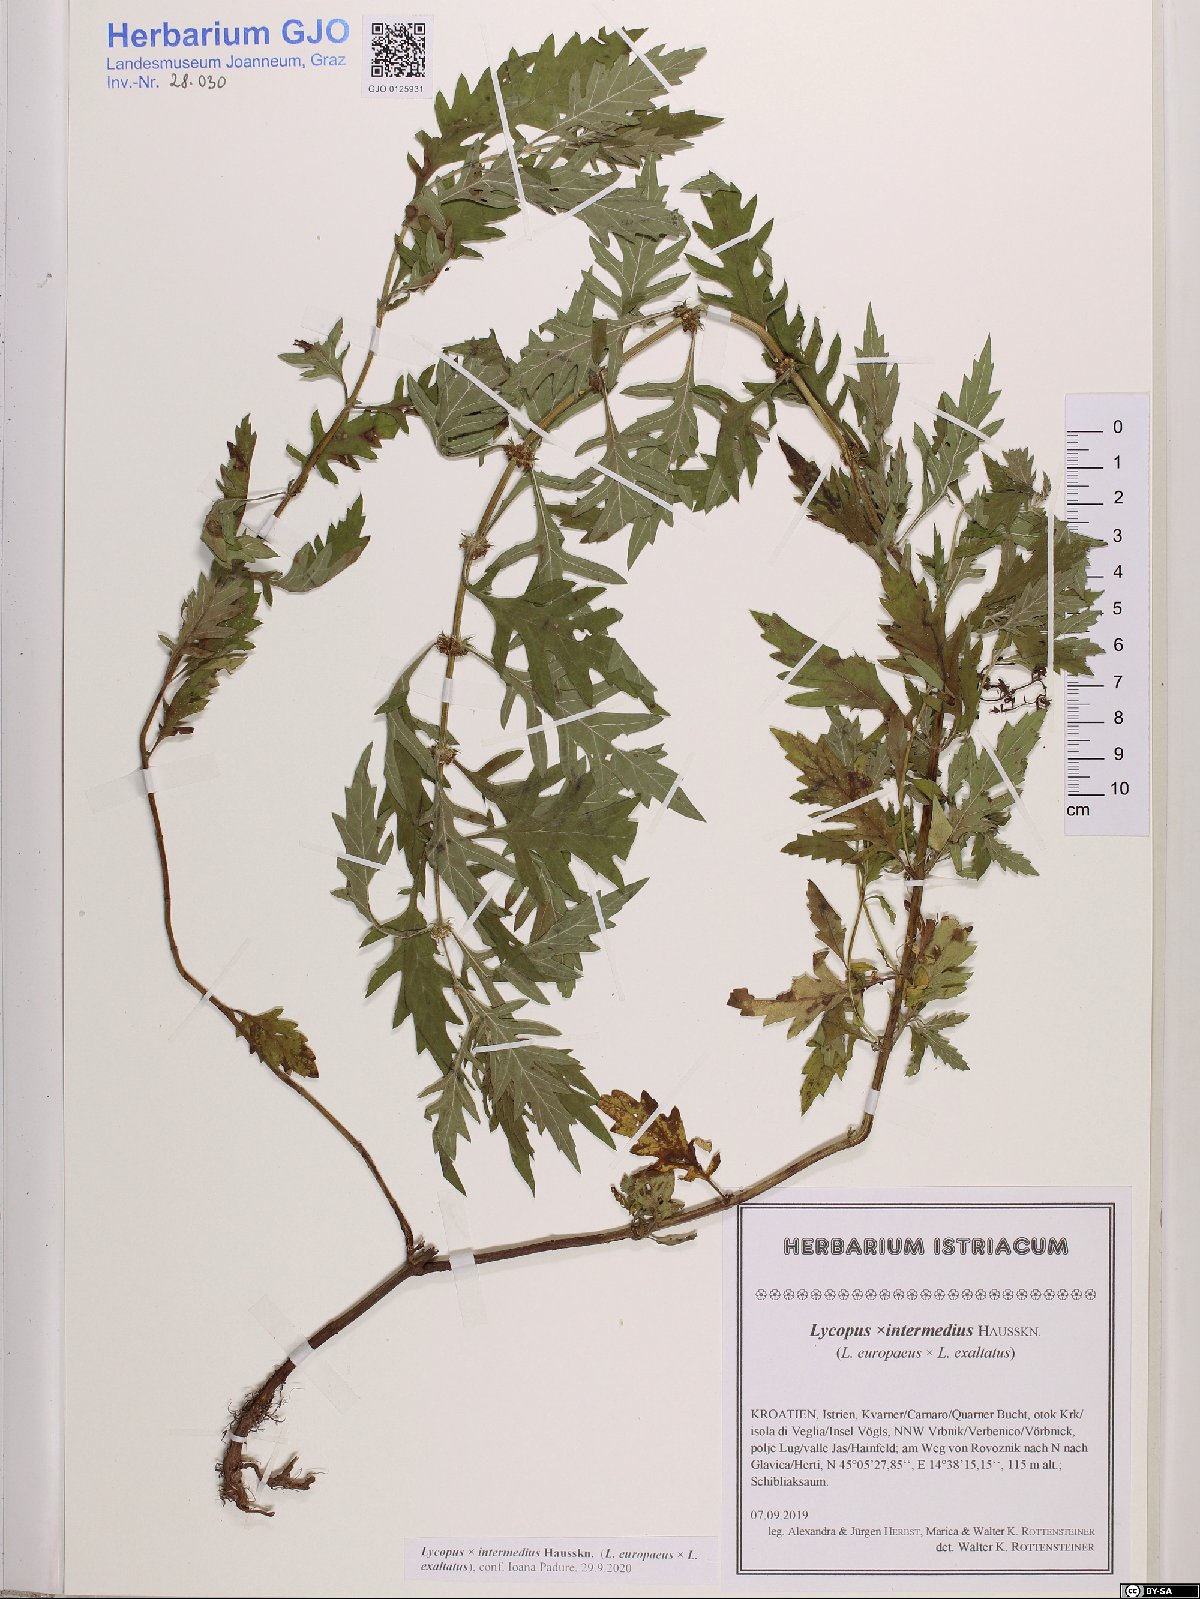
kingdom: Plantae
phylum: Tracheophyta
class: Magnoliopsida
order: Lamiales
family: Lamiaceae
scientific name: Lamiaceae
